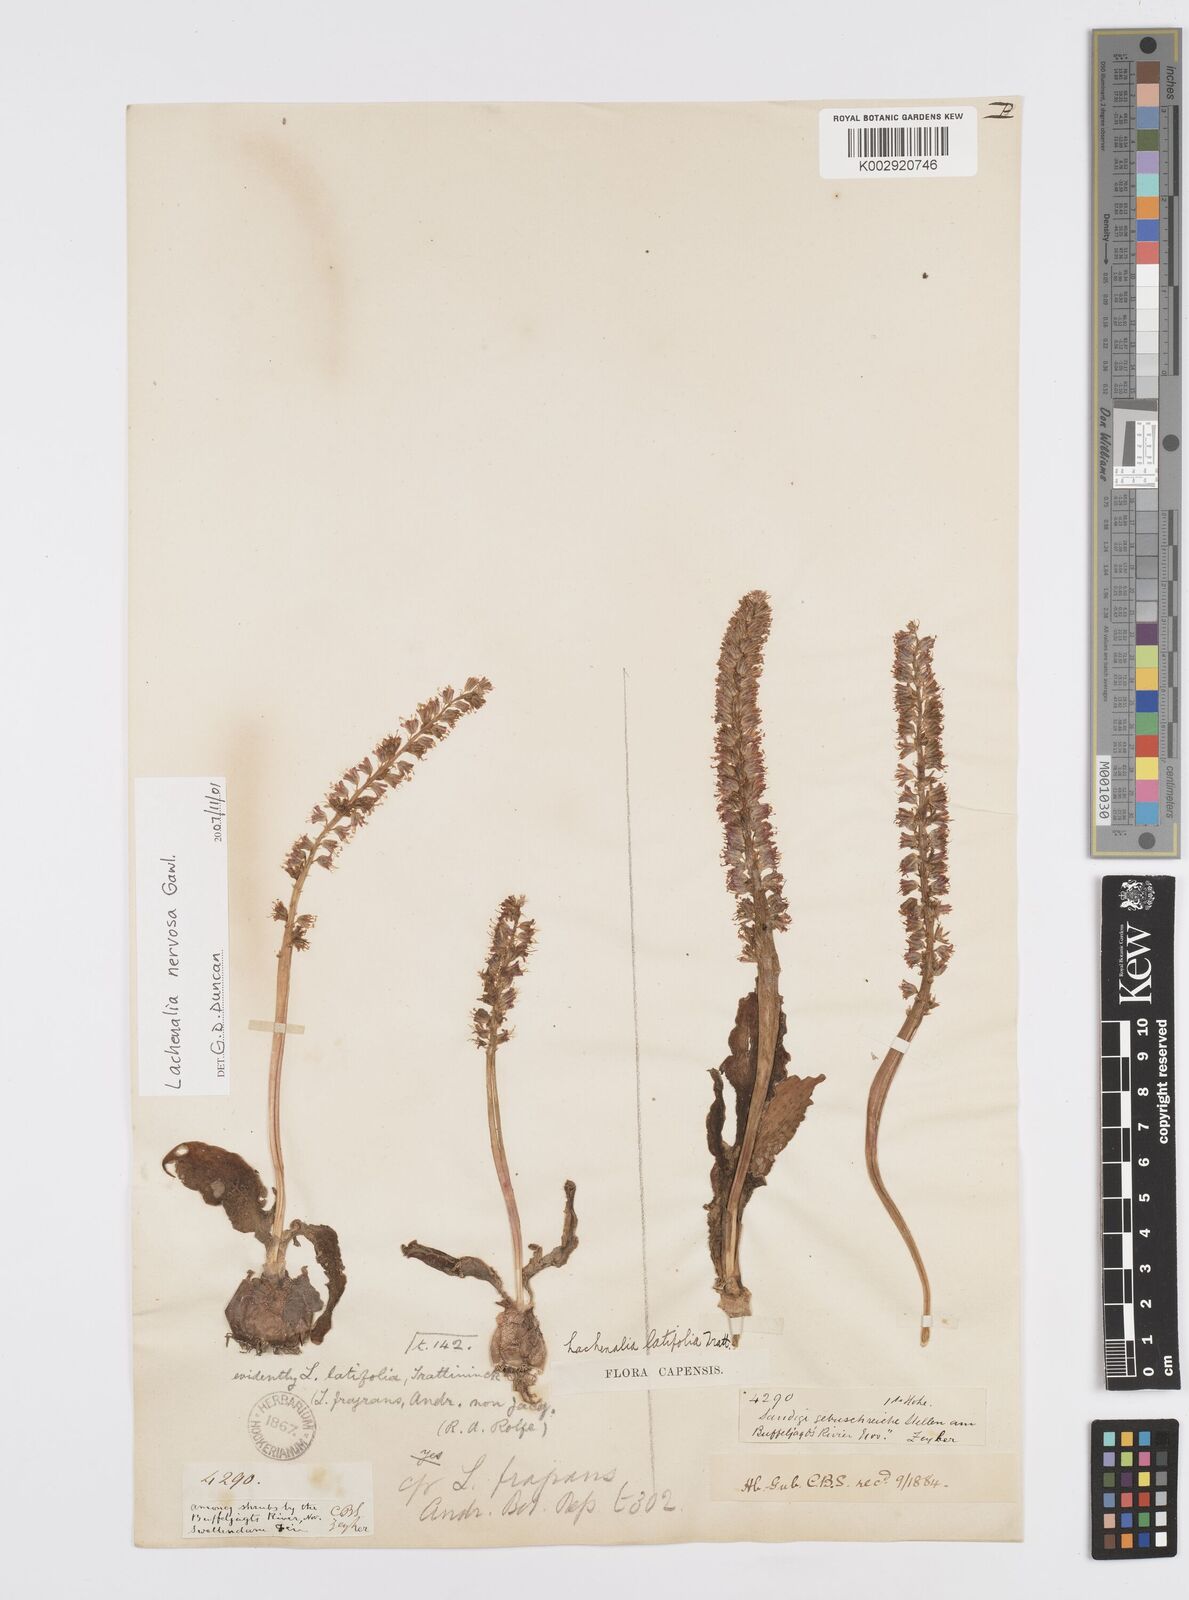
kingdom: Plantae
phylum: Tracheophyta
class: Liliopsida
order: Asparagales
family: Asparagaceae
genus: Lachenalia
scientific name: Lachenalia nervosa
